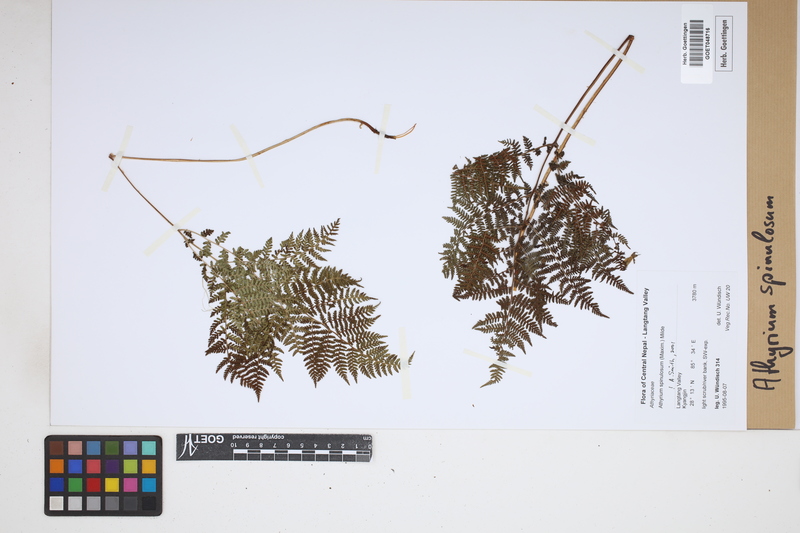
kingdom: Plantae
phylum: Tracheophyta
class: Polypodiopsida
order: Polypodiales
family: Athyriaceae
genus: Athyrium
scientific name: Athyrium spinulosum
